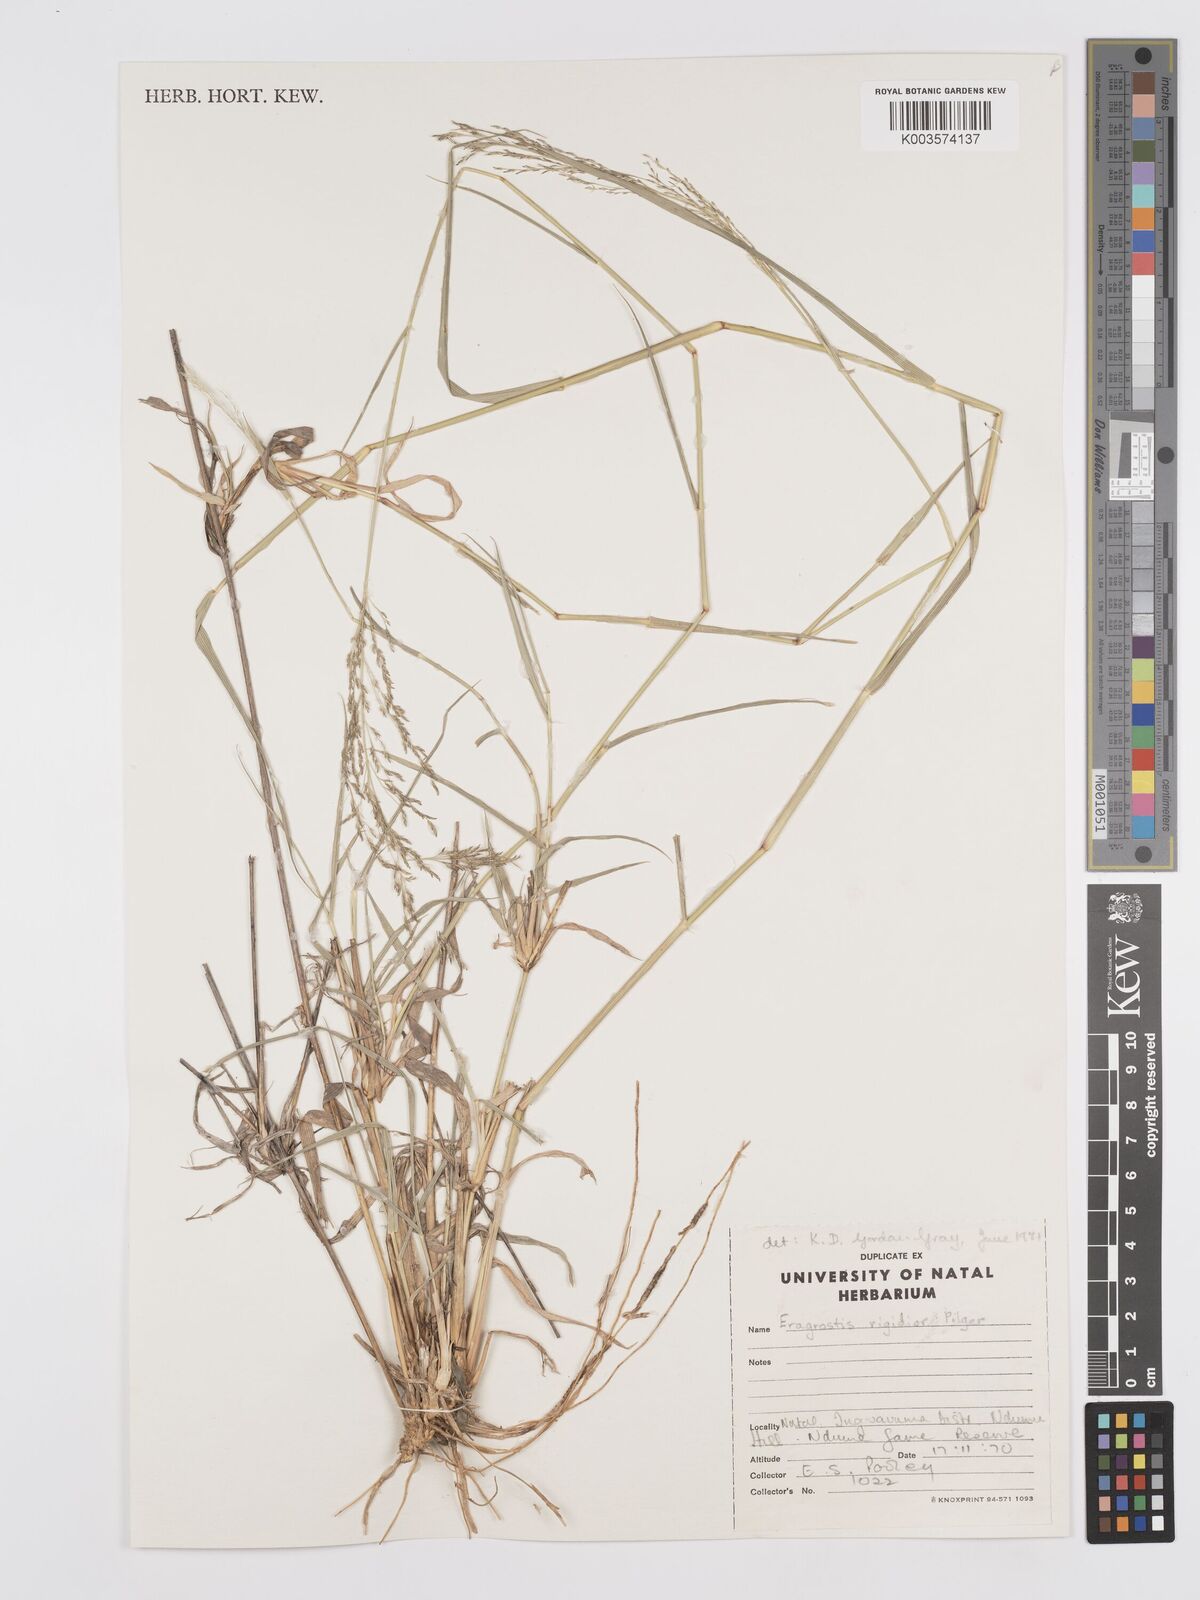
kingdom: Plantae
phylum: Tracheophyta
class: Liliopsida
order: Poales
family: Poaceae
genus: Eragrostis
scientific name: Eragrostis cylindriflora
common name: Cylinderflower lovegrass
